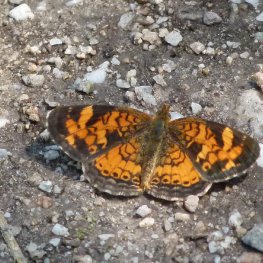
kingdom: Animalia
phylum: Arthropoda
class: Insecta
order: Lepidoptera
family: Nymphalidae
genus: Phyciodes
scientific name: Phyciodes tharos
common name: Northern Crescent
